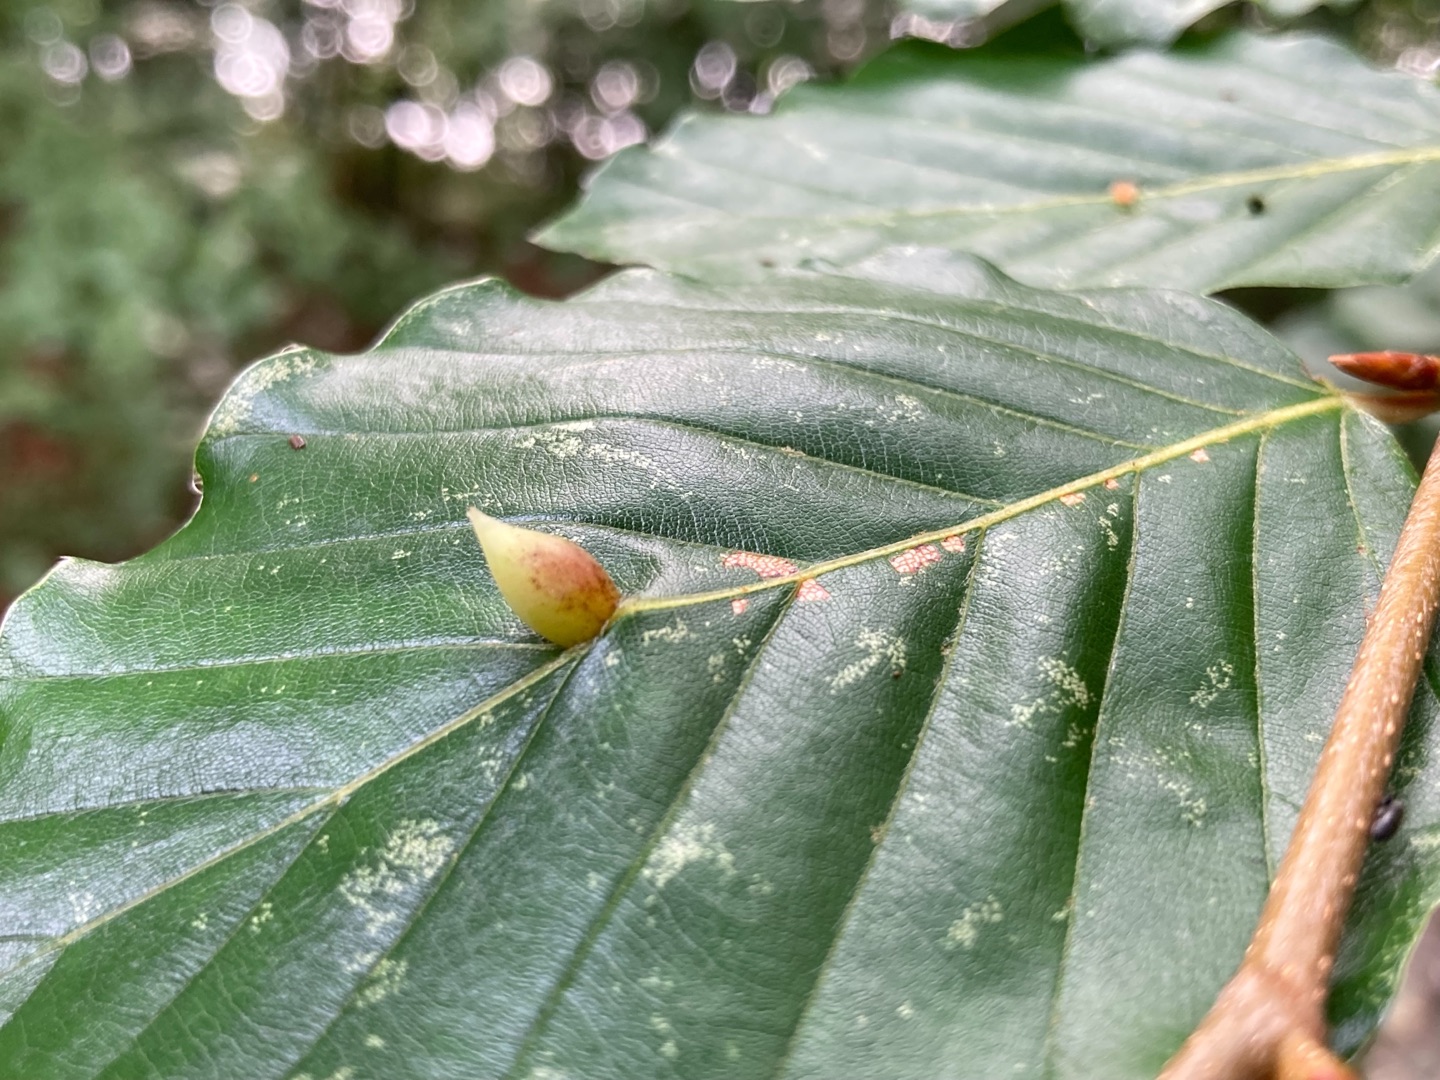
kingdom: Animalia
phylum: Arthropoda
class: Insecta
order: Diptera
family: Cecidomyiidae
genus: Mikiola
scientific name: Mikiola fagi
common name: Bøgegalmyg
